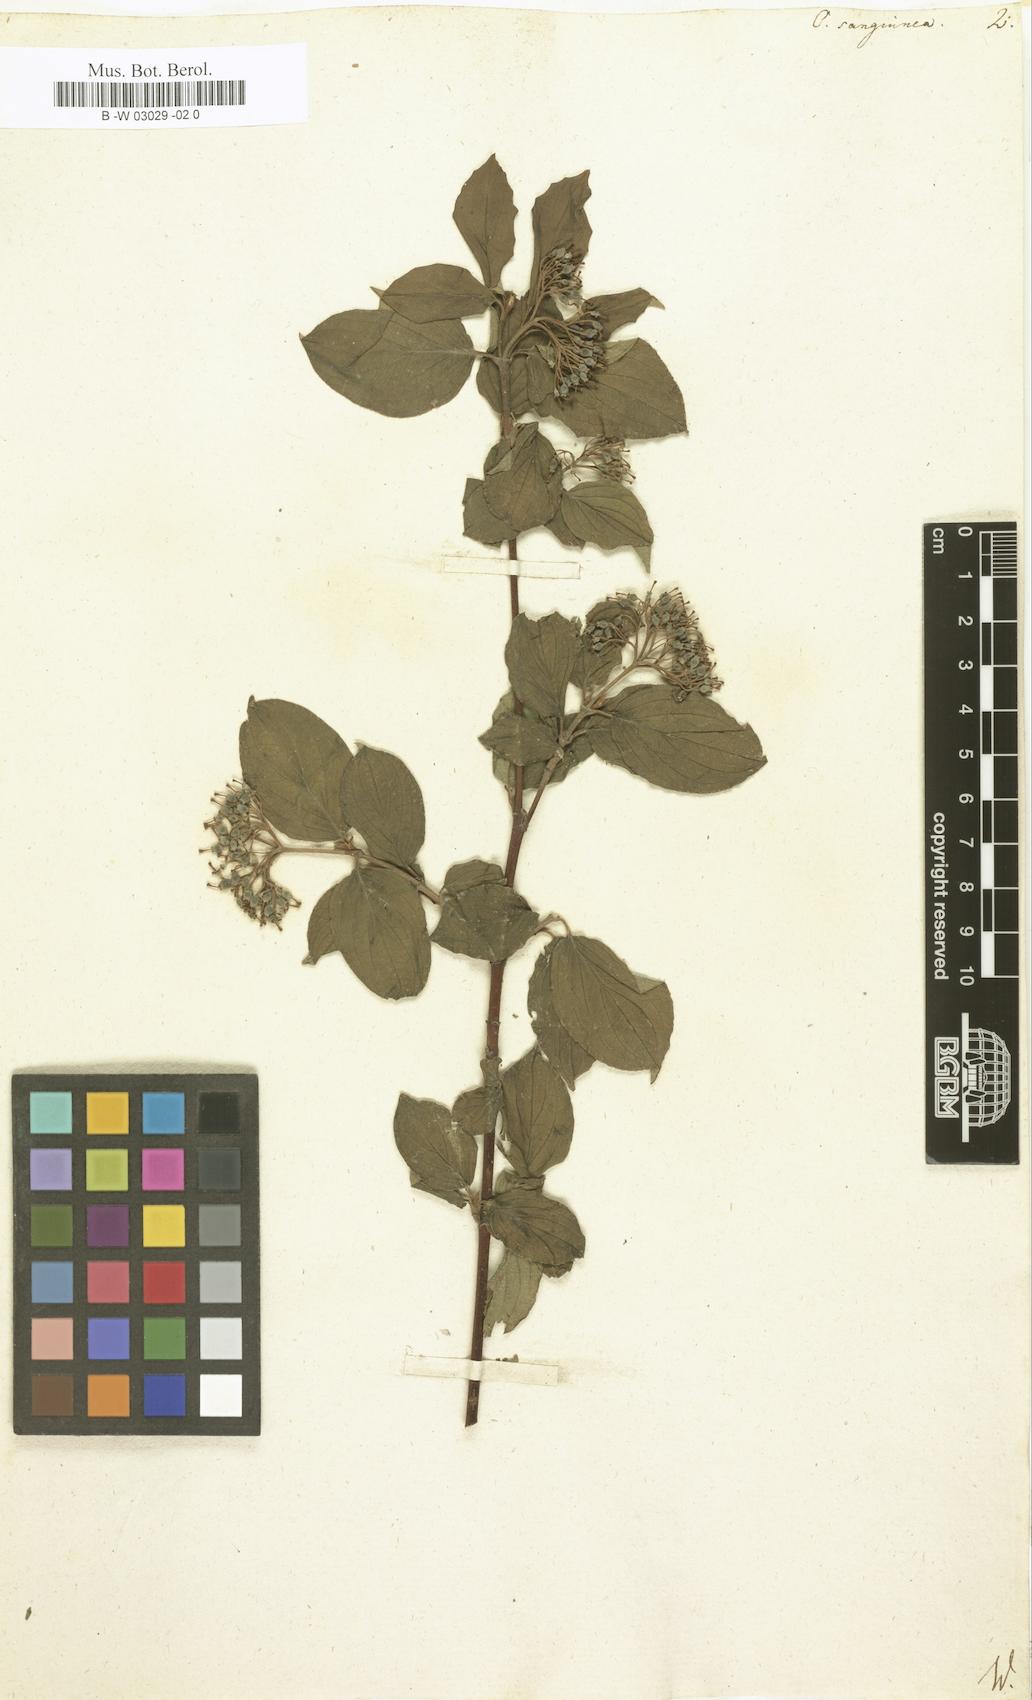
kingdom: Plantae
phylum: Tracheophyta
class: Magnoliopsida
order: Cornales
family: Cornaceae
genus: Cornus
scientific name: Cornus controversa
